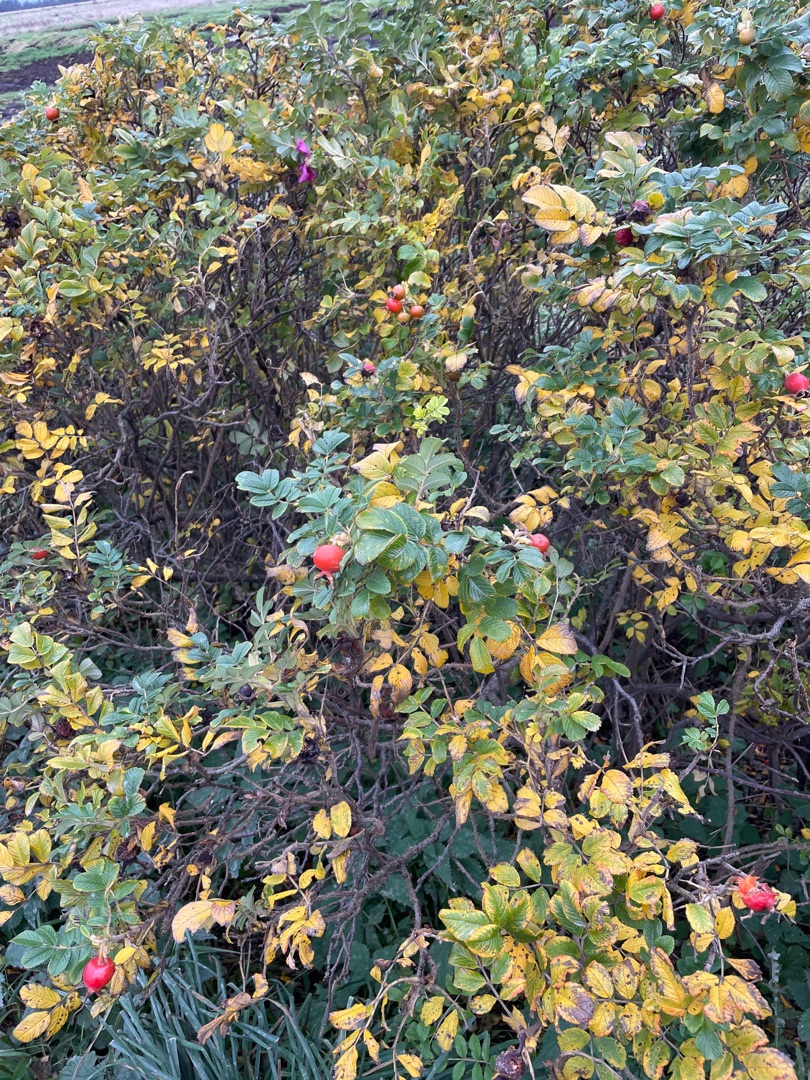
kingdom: Plantae
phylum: Tracheophyta
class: Magnoliopsida
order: Rosales
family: Rosaceae
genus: Rosa
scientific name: Rosa rugosa
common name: Rynket rose
